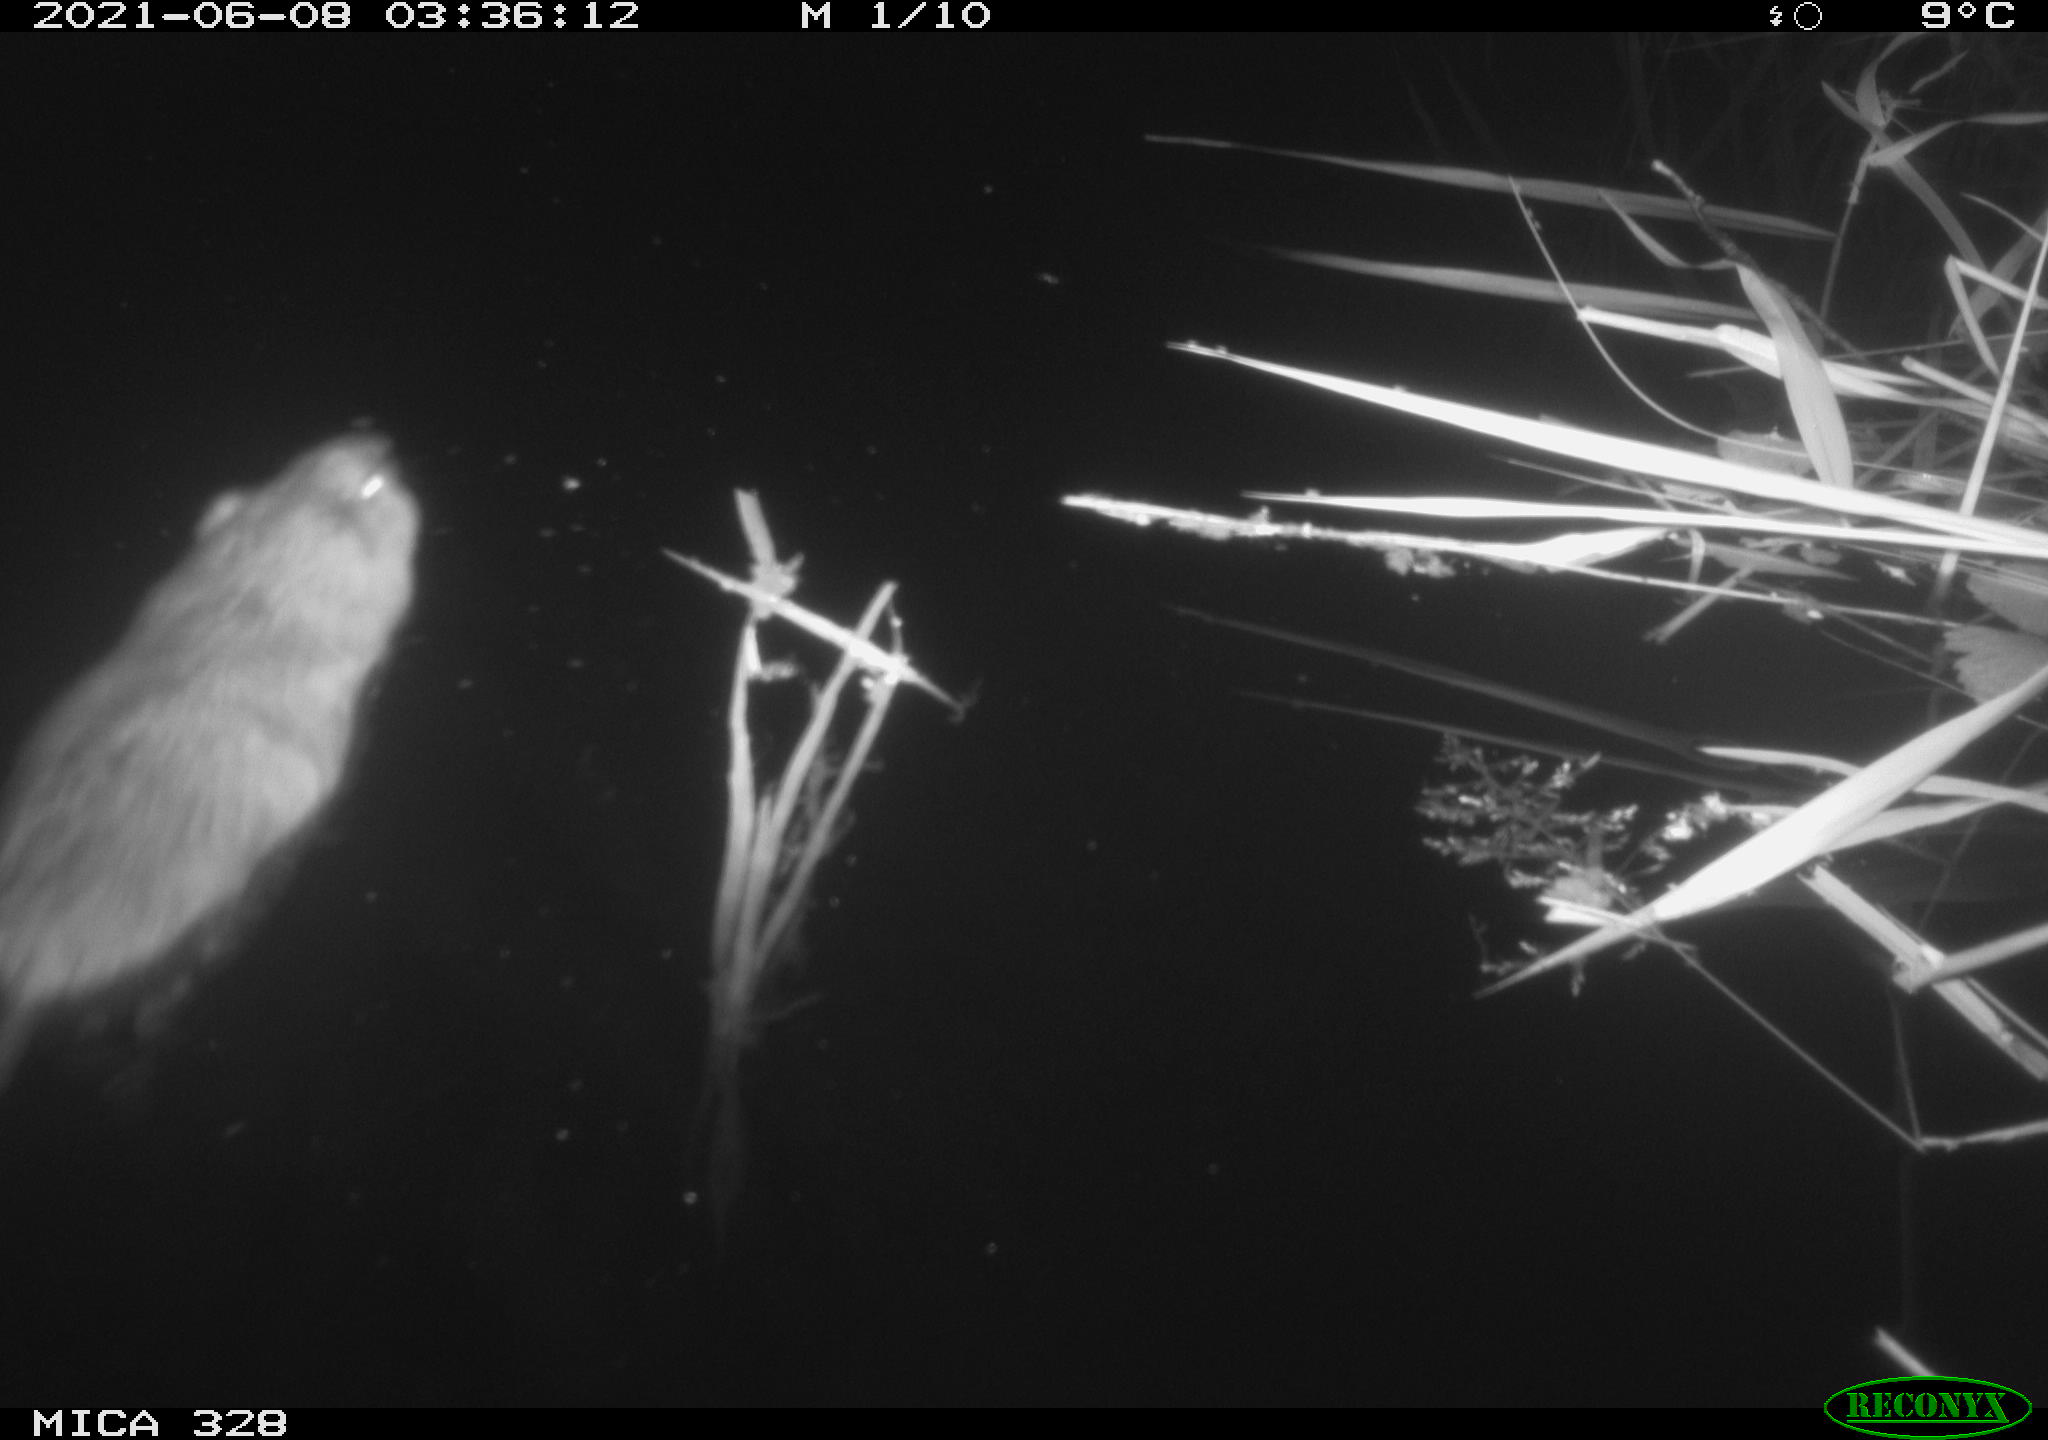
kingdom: Animalia
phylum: Chordata
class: Mammalia
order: Rodentia
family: Cricetidae
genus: Ondatra
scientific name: Ondatra zibethicus
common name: Muskrat
